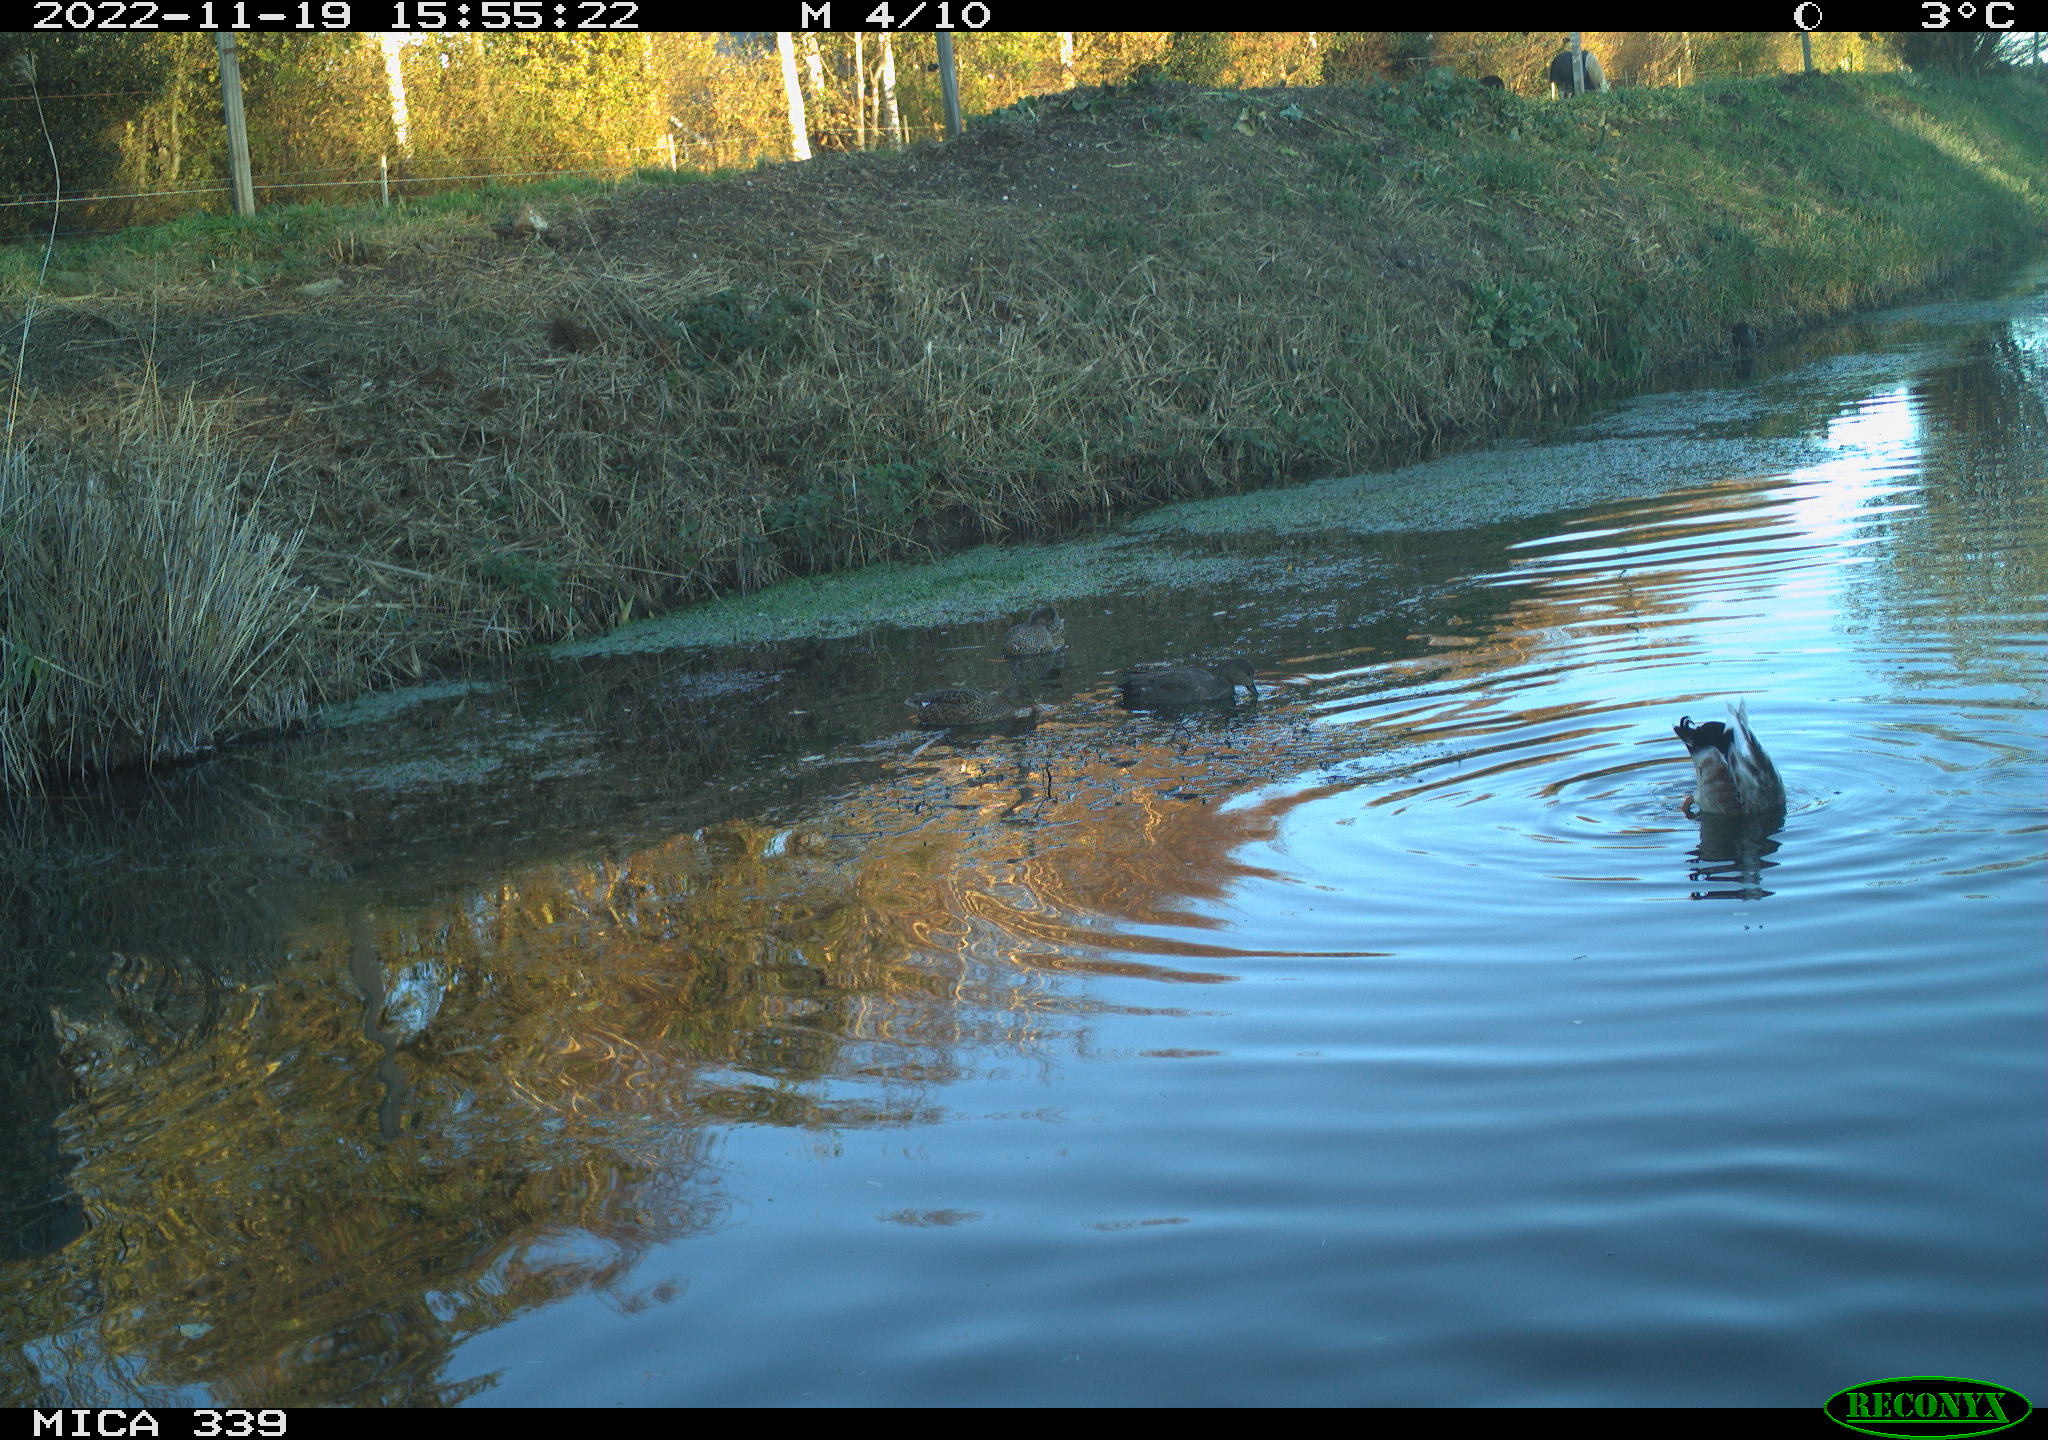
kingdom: Animalia
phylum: Chordata
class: Aves
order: Anseriformes
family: Anatidae
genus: Mareca
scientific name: Mareca strepera
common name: Gadwall
